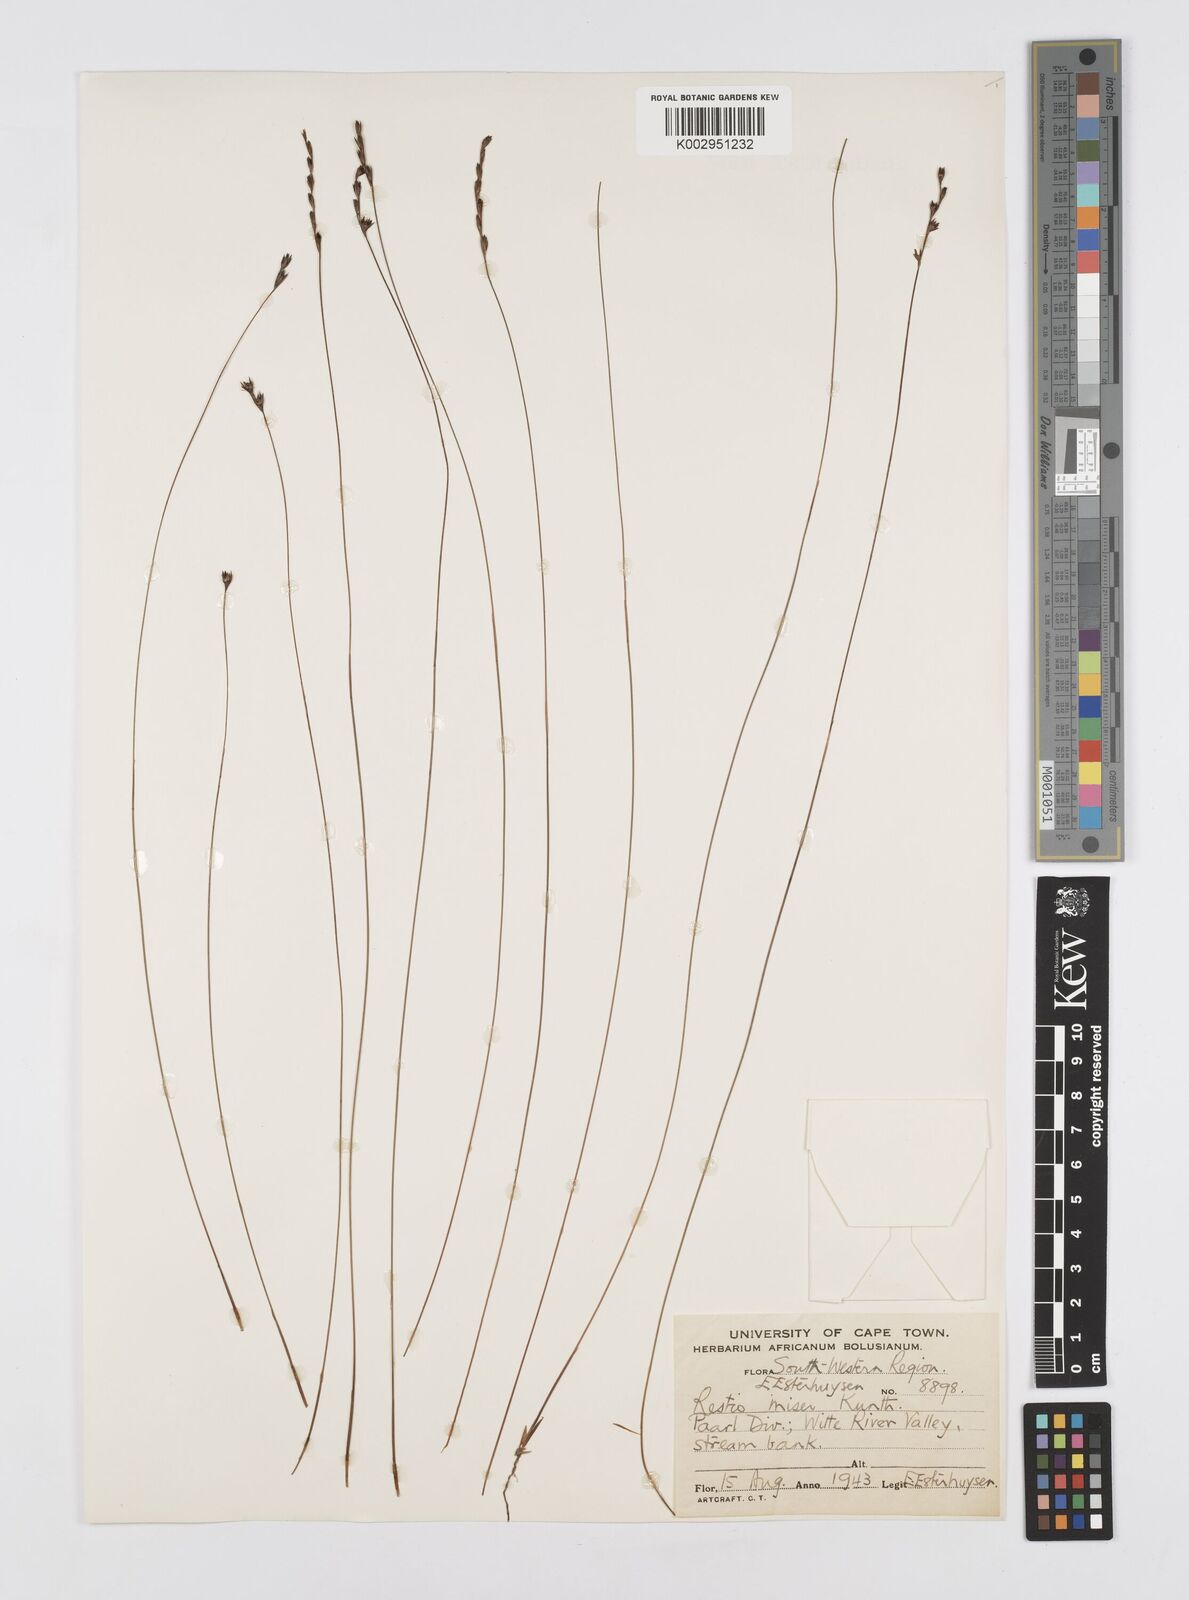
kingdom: Plantae
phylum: Tracheophyta
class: Liliopsida
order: Poales
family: Restionaceae
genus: Restio
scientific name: Restio miser
